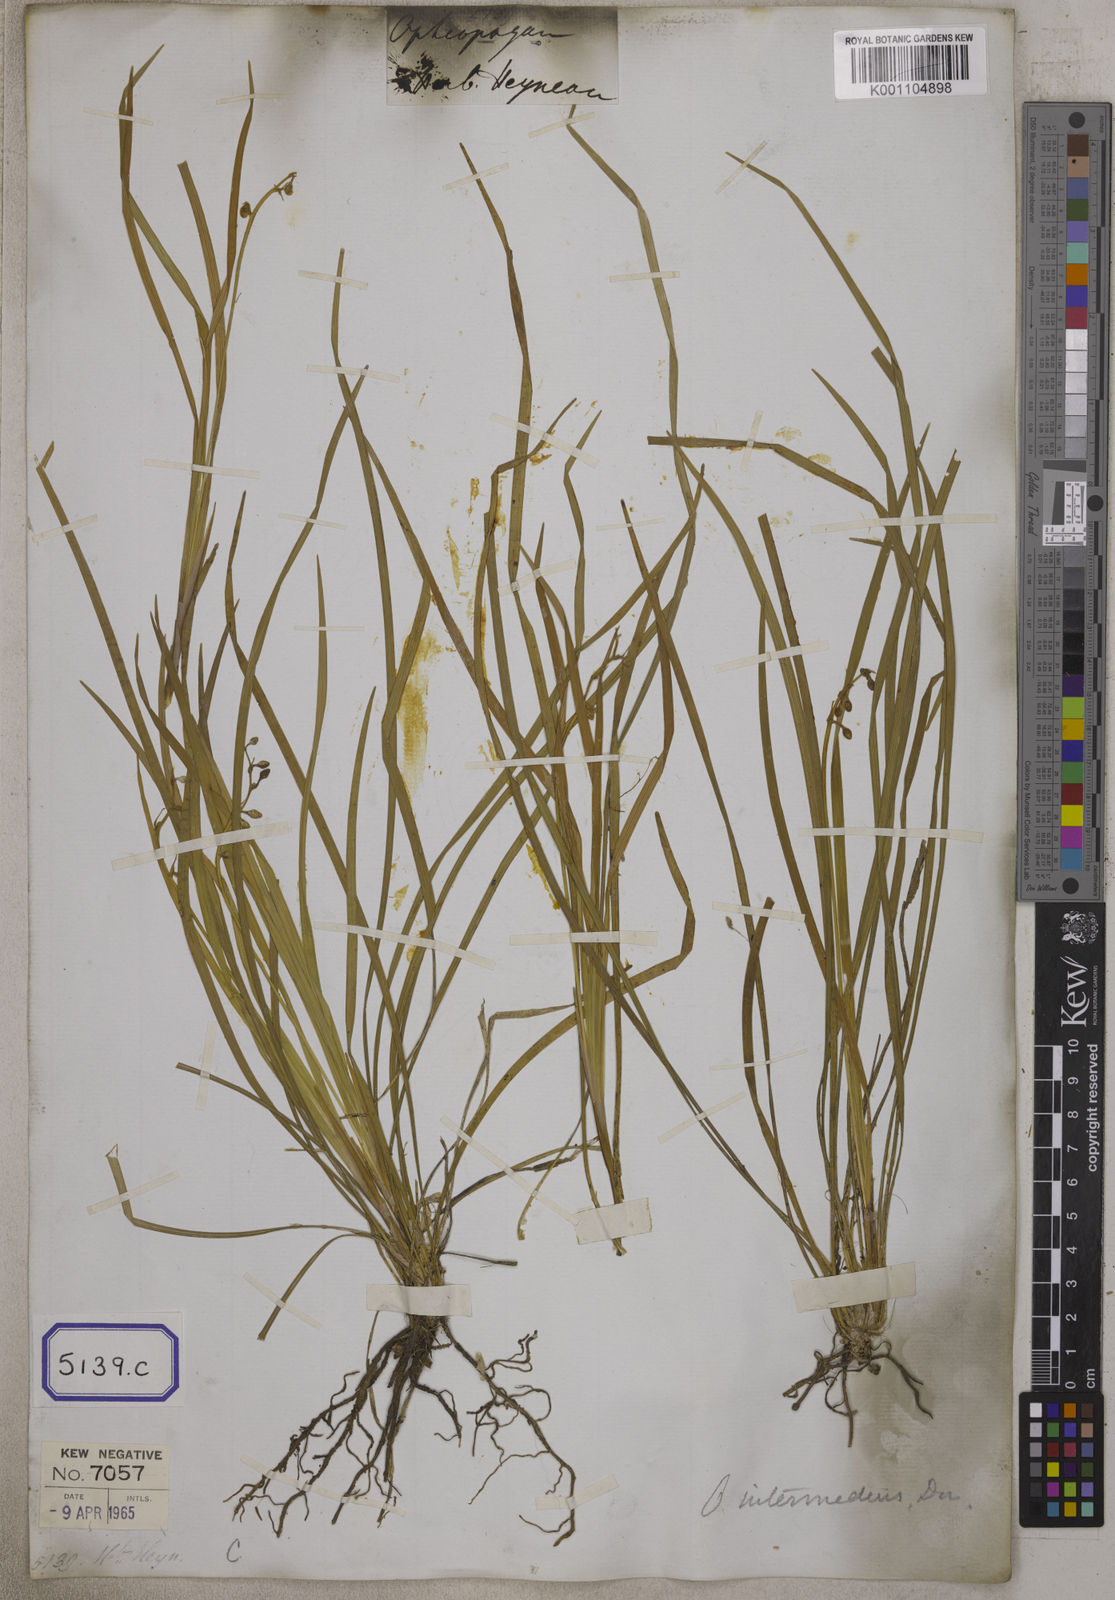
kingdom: Plantae
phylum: Tracheophyta
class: Liliopsida
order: Asparagales
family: Asparagaceae
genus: Ophiopogon
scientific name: Ophiopogon
